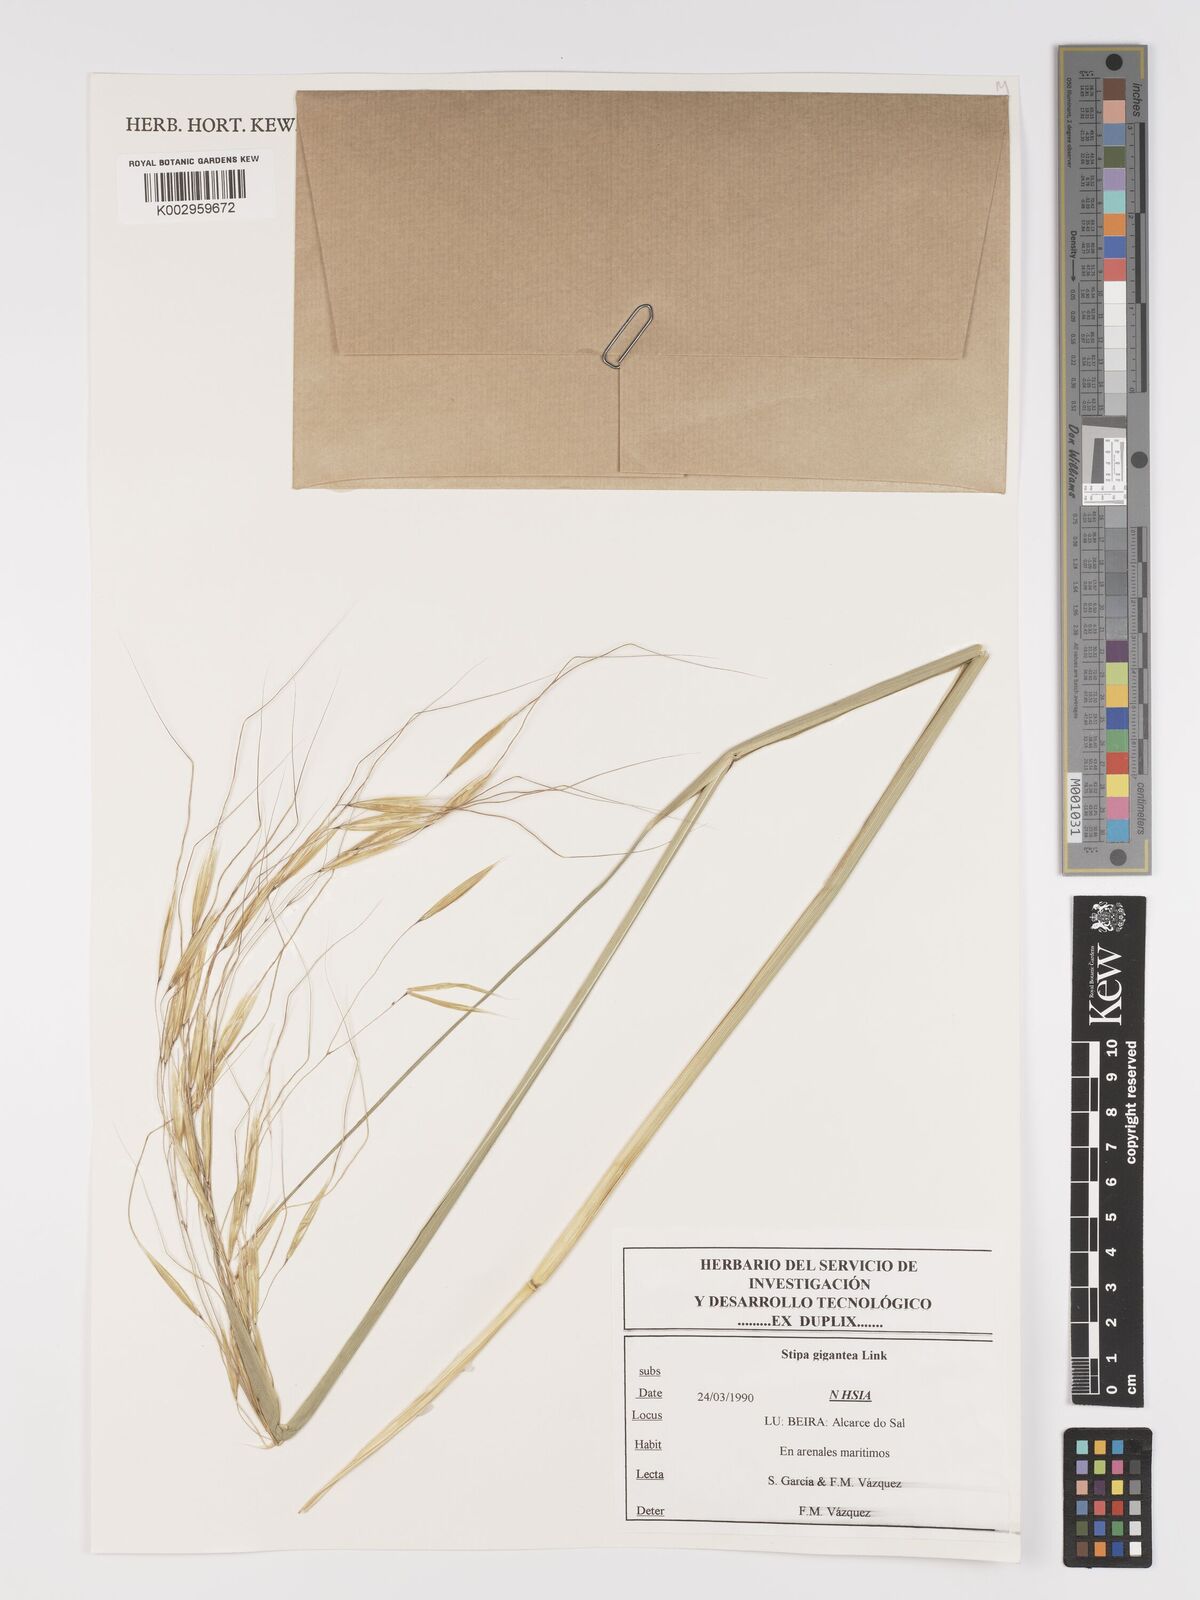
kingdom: Plantae
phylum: Tracheophyta
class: Liliopsida
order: Poales
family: Poaceae
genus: Celtica
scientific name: Celtica gigantea
